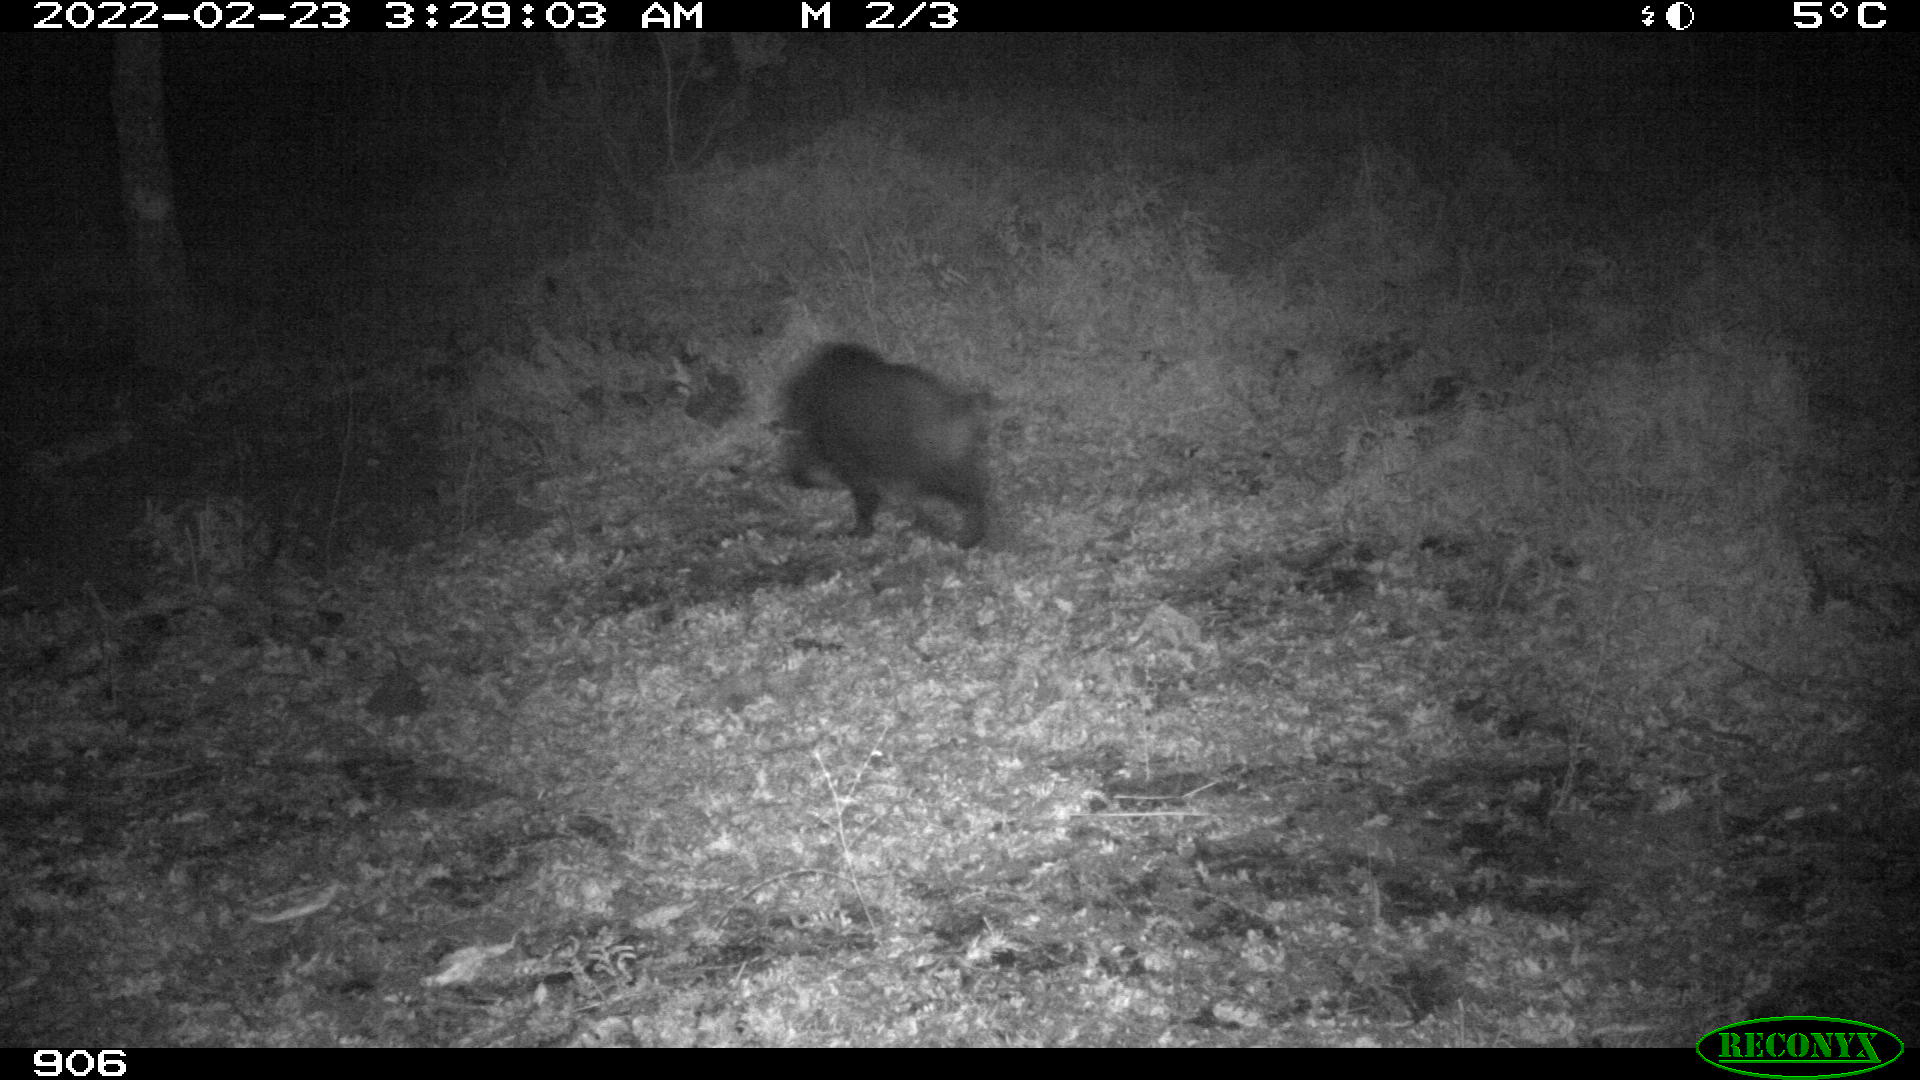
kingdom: Animalia
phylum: Chordata
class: Mammalia
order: Artiodactyla
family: Suidae
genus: Sus
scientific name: Sus scrofa
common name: Wild boar
